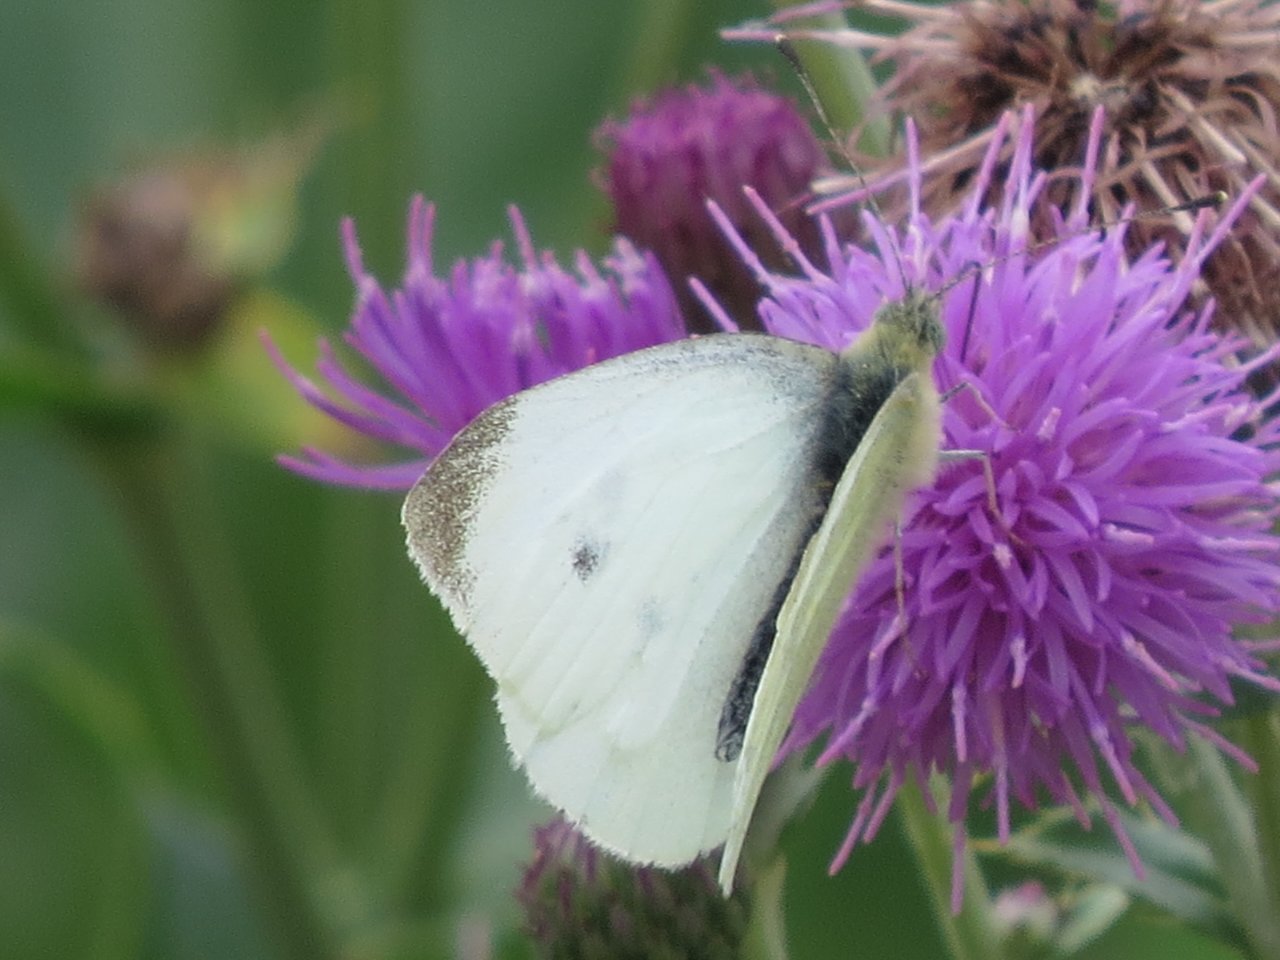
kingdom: Animalia
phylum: Arthropoda
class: Insecta
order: Lepidoptera
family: Pieridae
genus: Pieris
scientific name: Pieris rapae
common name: Cabbage White
